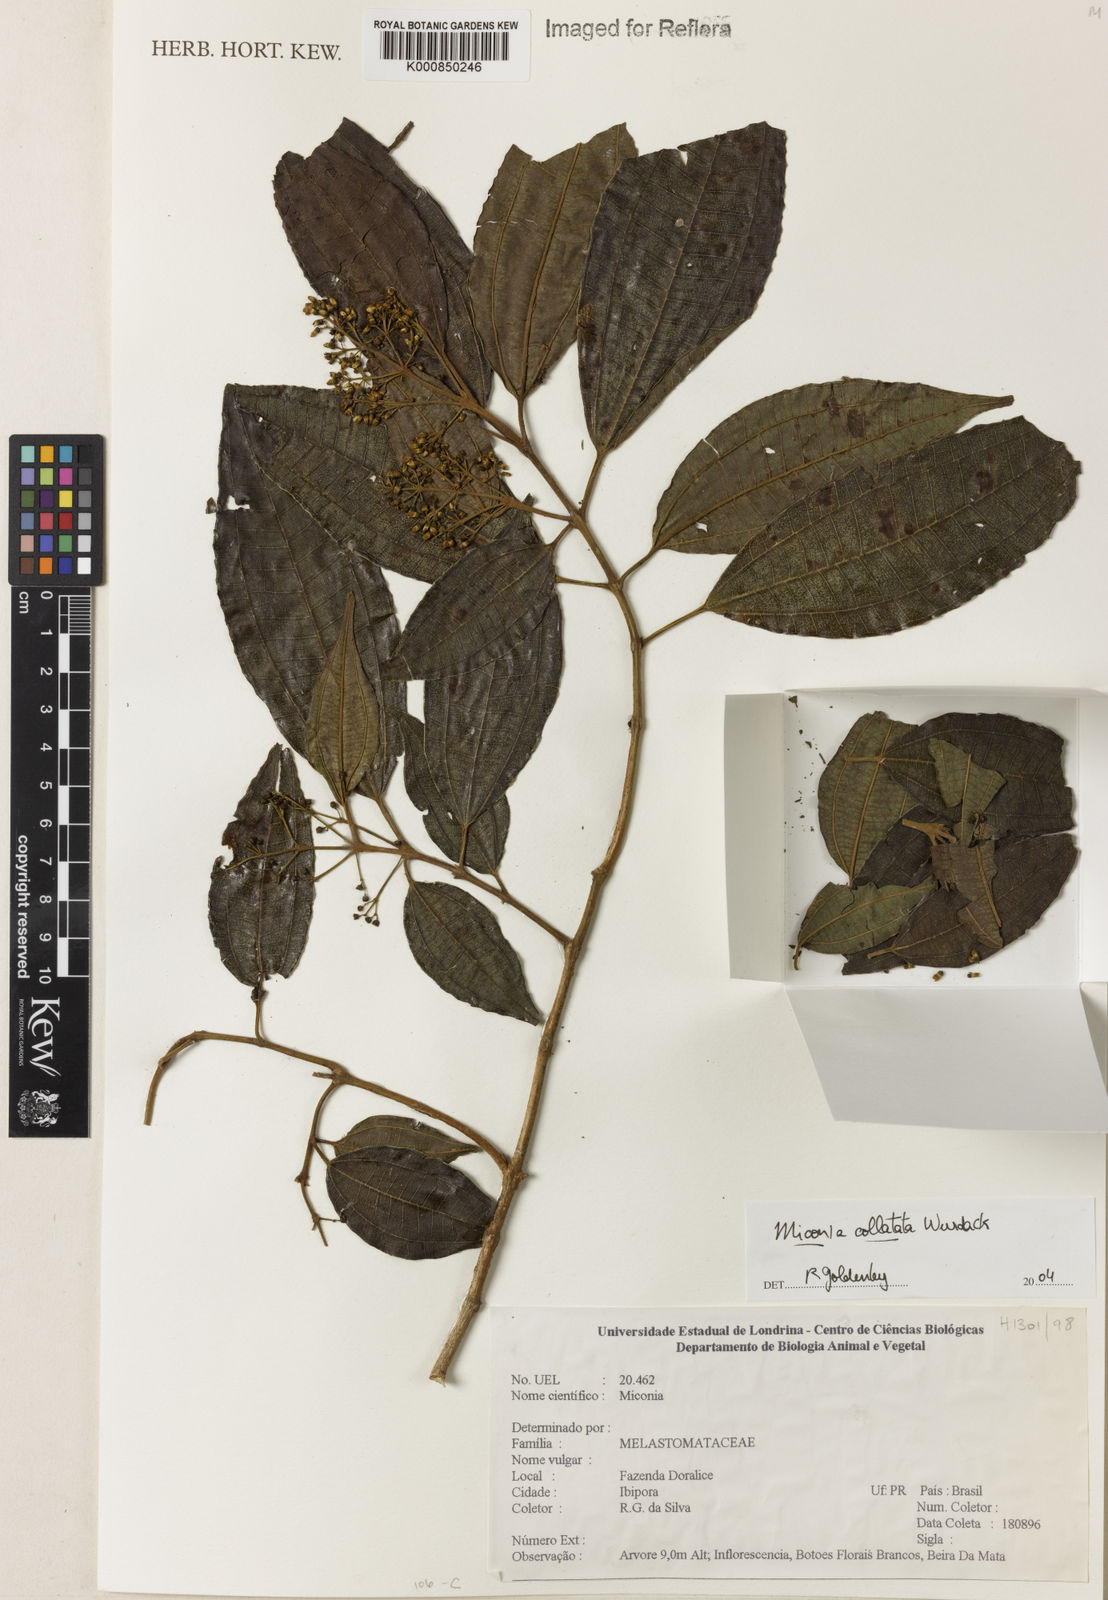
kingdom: Plantae
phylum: Tracheophyta
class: Magnoliopsida
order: Myrtales
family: Melastomataceae
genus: Miconia
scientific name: Miconia collatata
